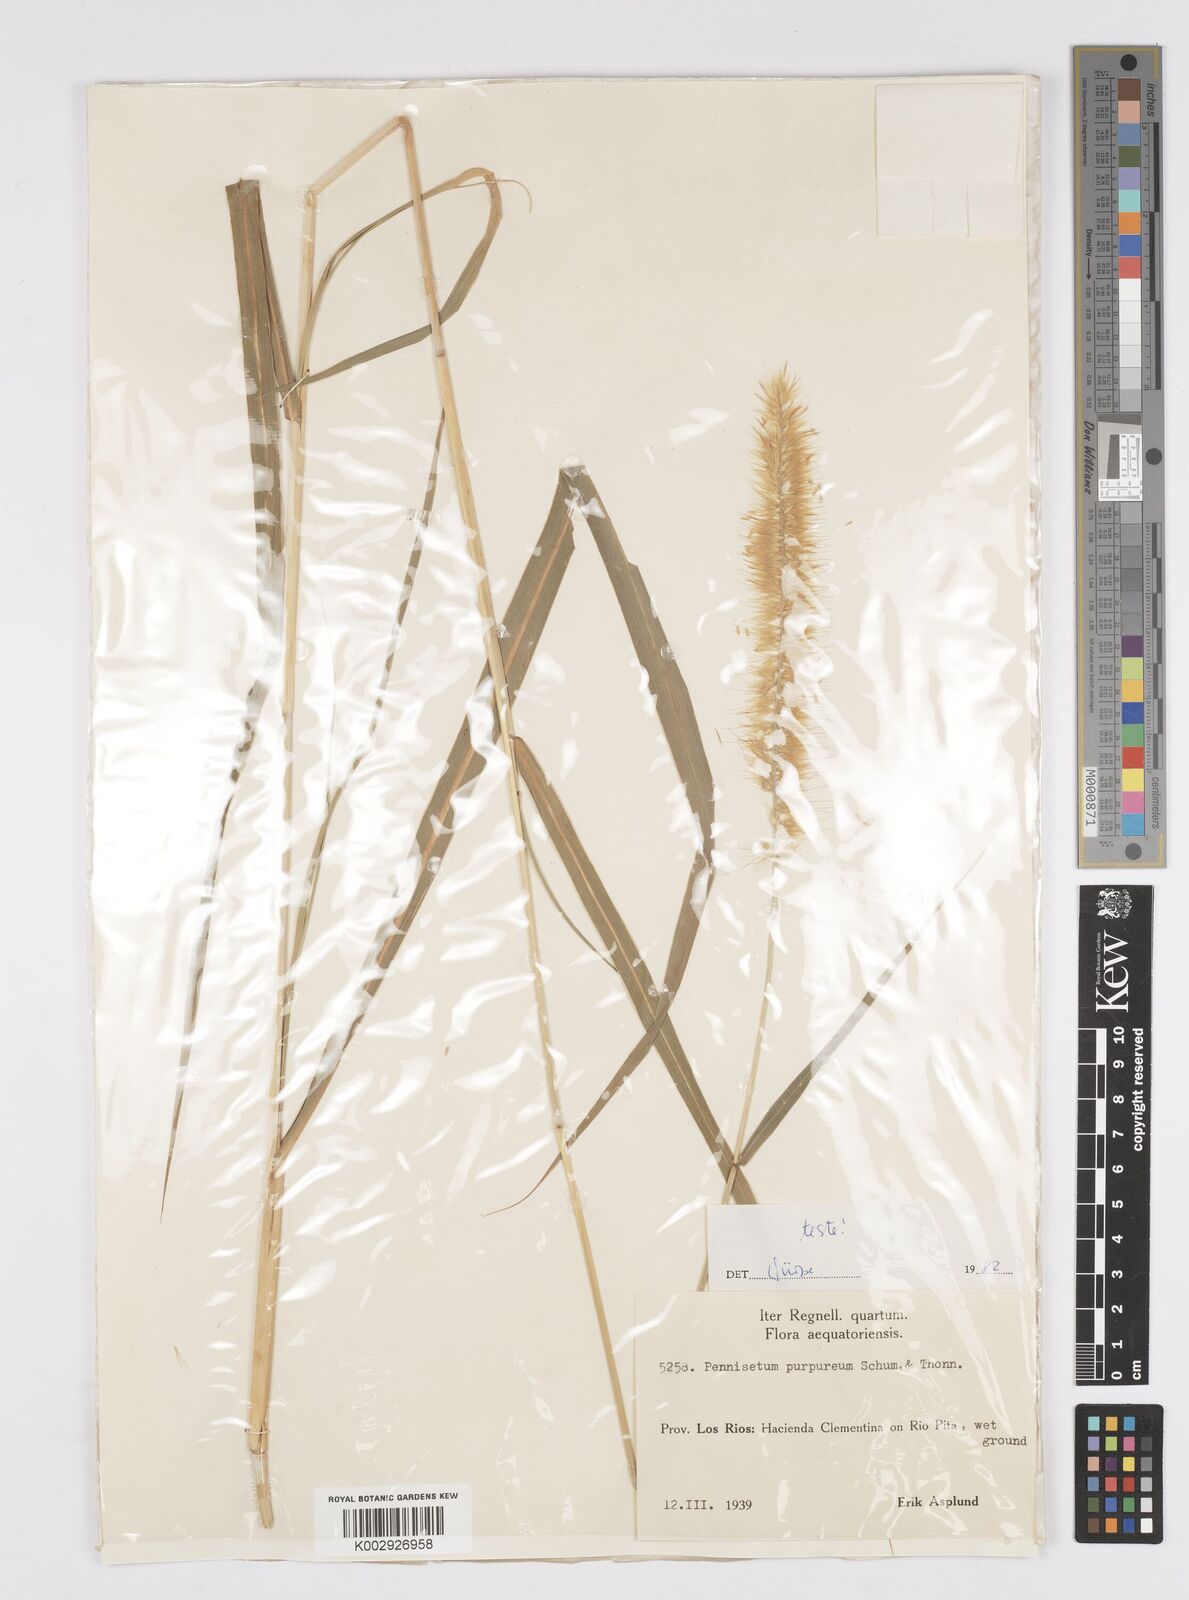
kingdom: Plantae
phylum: Tracheophyta
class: Liliopsida
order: Poales
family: Poaceae
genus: Cenchrus
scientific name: Cenchrus purpureus
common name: Elephant grass
